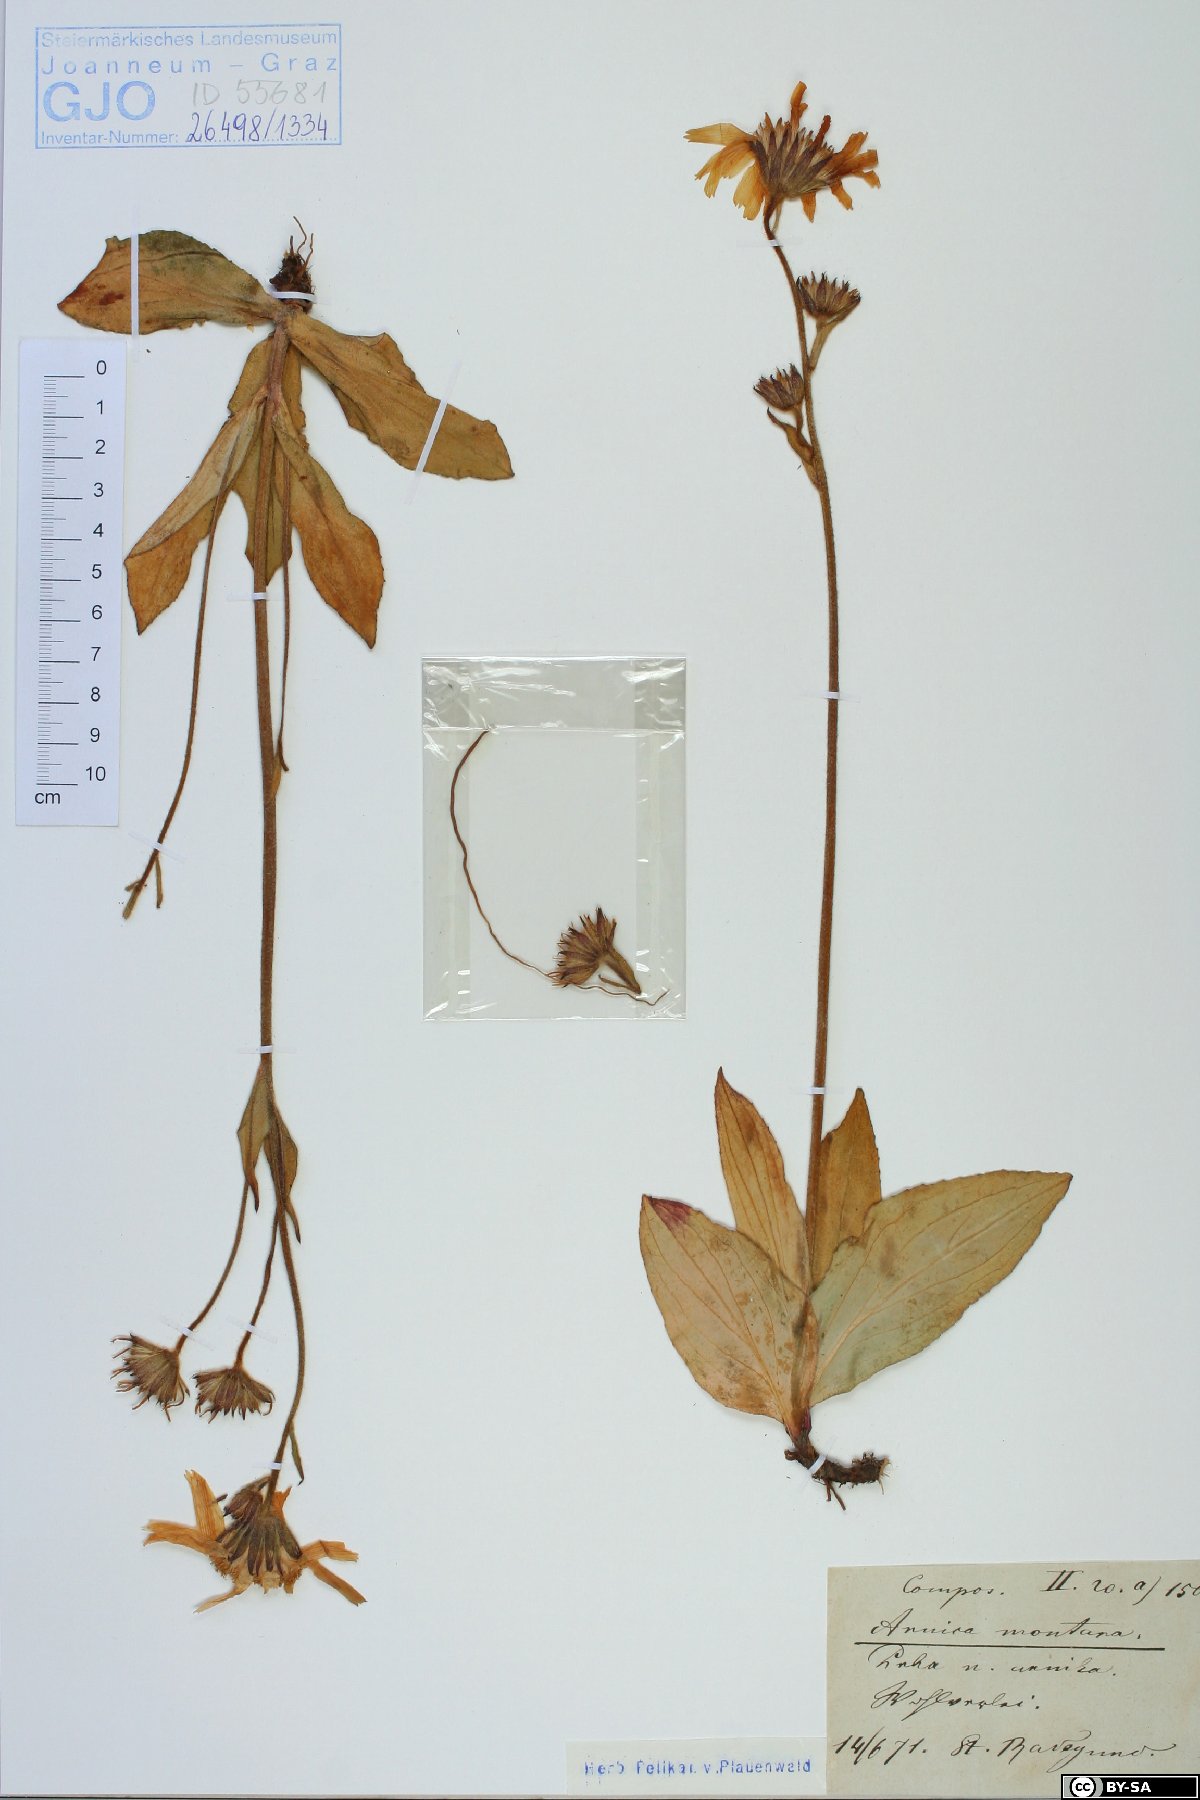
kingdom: Plantae
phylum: Tracheophyta
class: Magnoliopsida
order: Asterales
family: Asteraceae
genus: Arnica
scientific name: Arnica montana
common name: Leopard's bane
